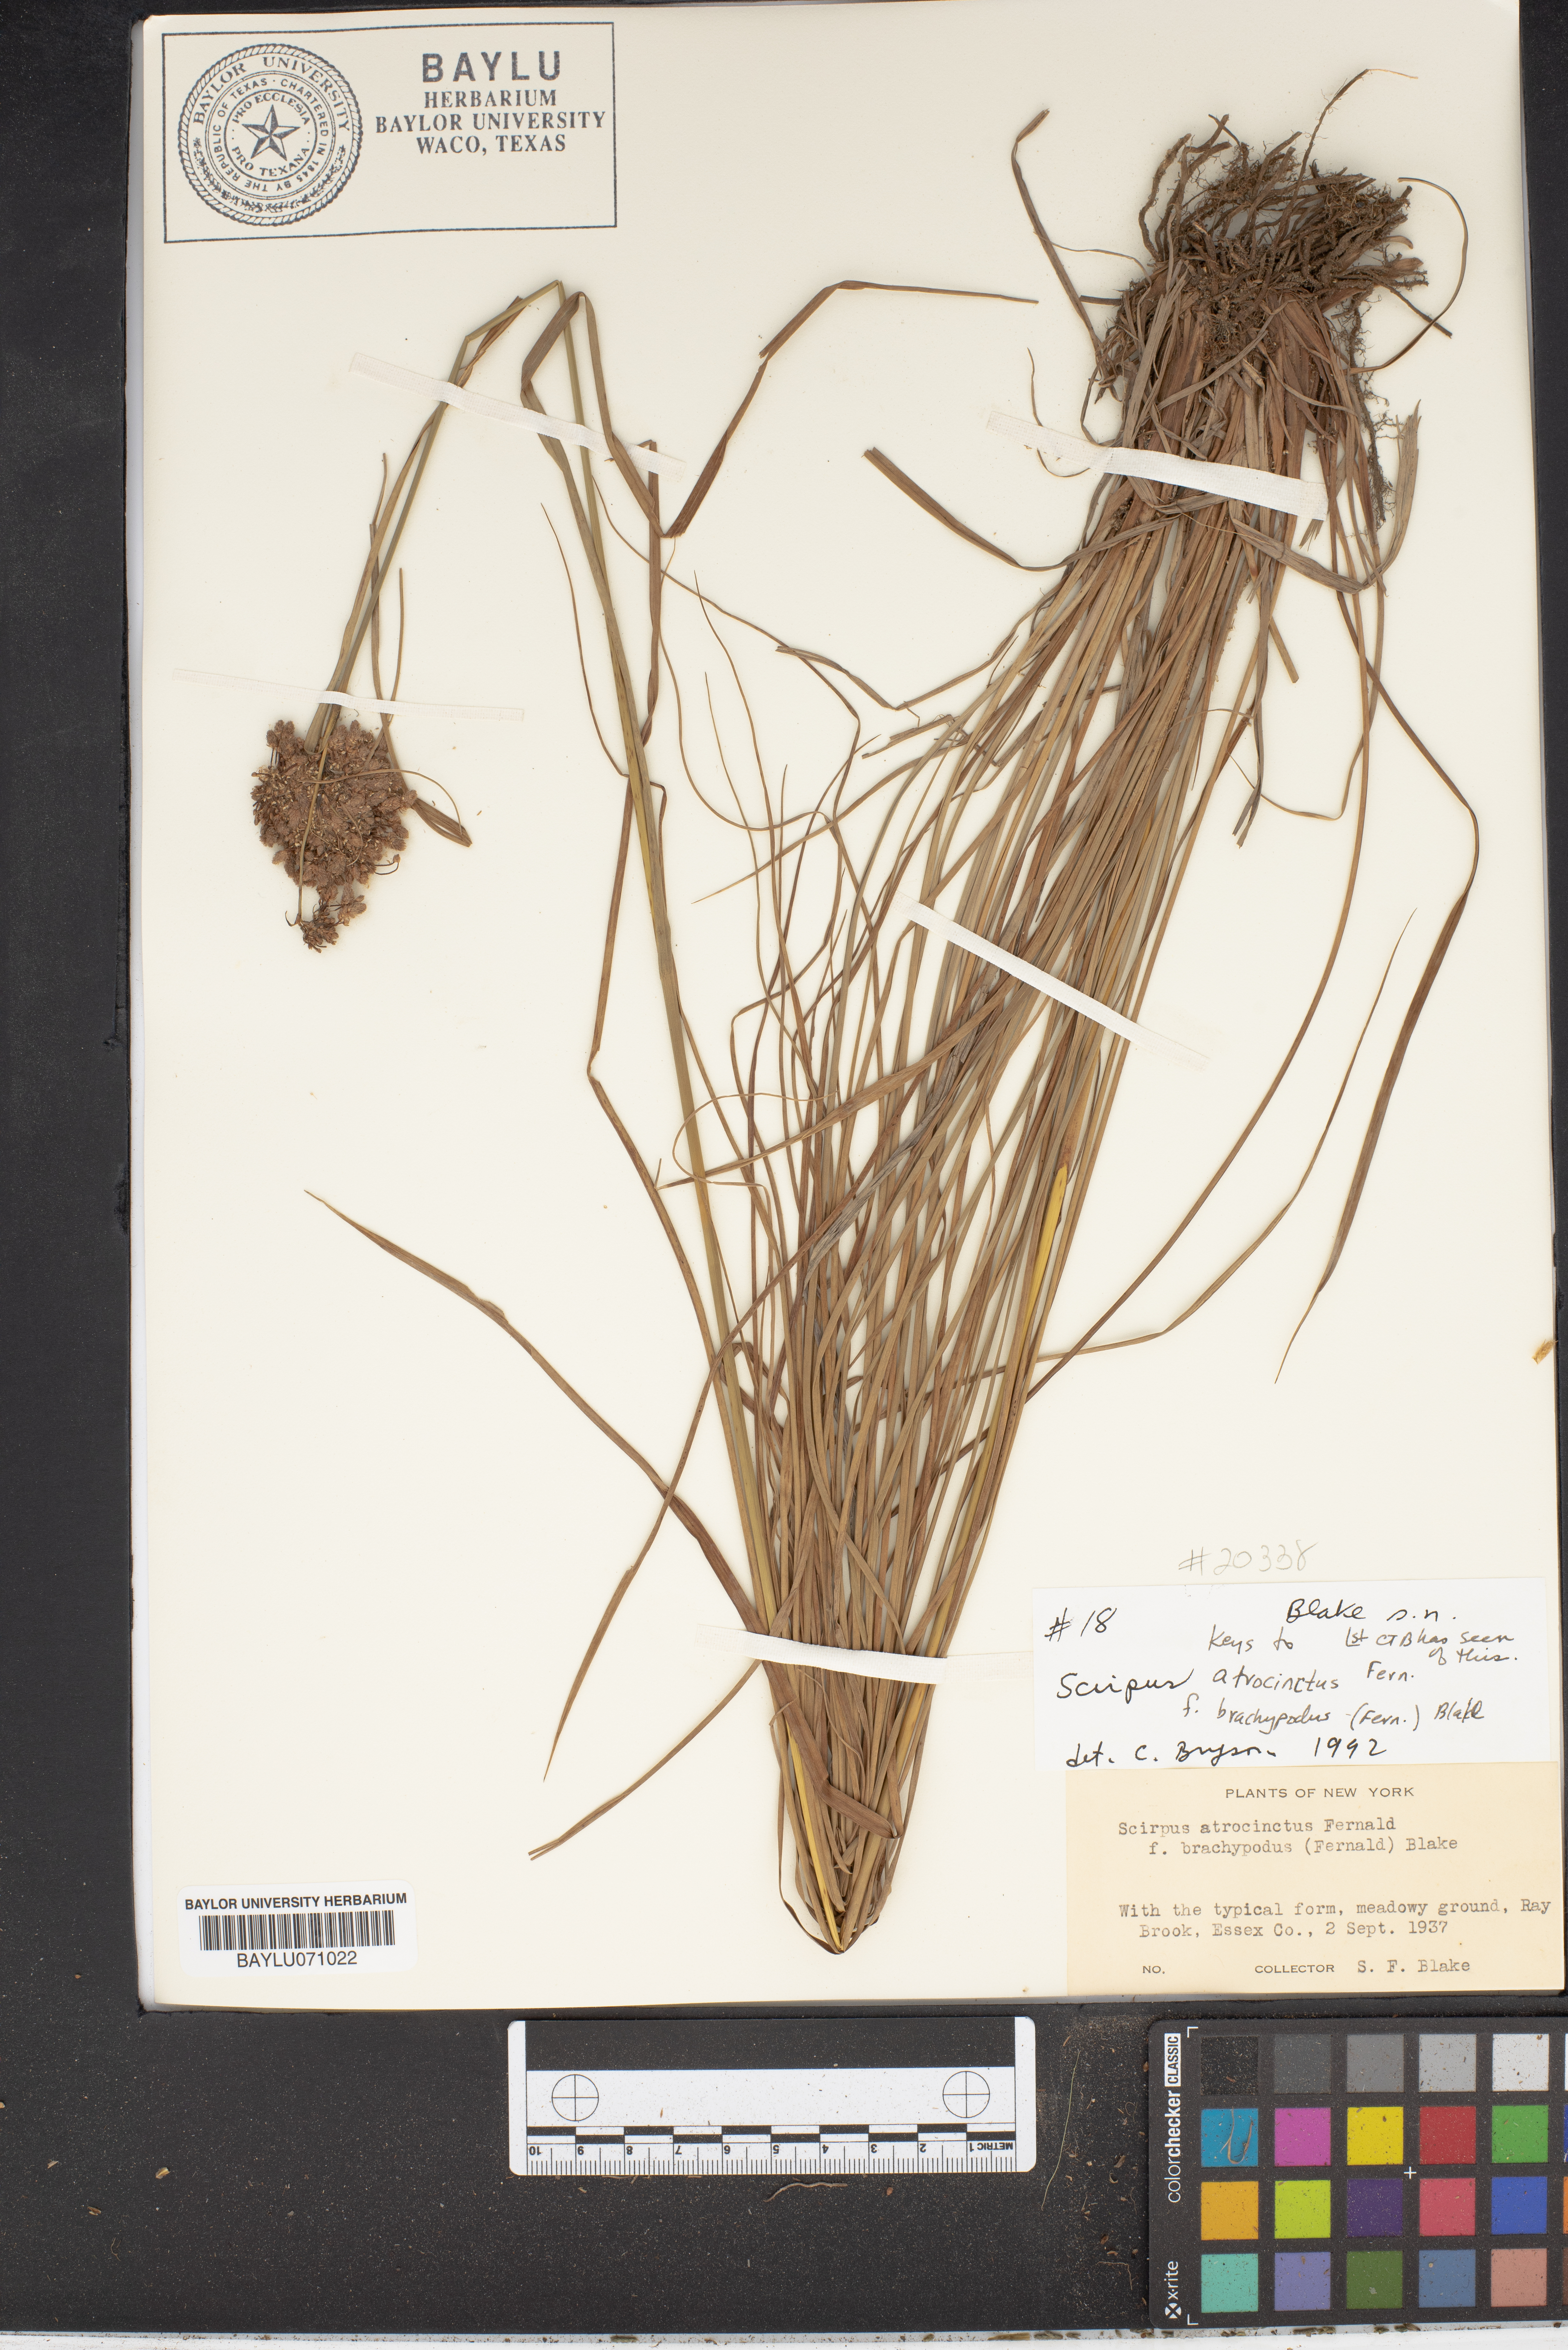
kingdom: Plantae
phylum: Tracheophyta
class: Liliopsida
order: Poales
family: Cyperaceae
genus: Scirpus
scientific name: Scirpus atrocinctus
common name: Black-girdled bulrush
